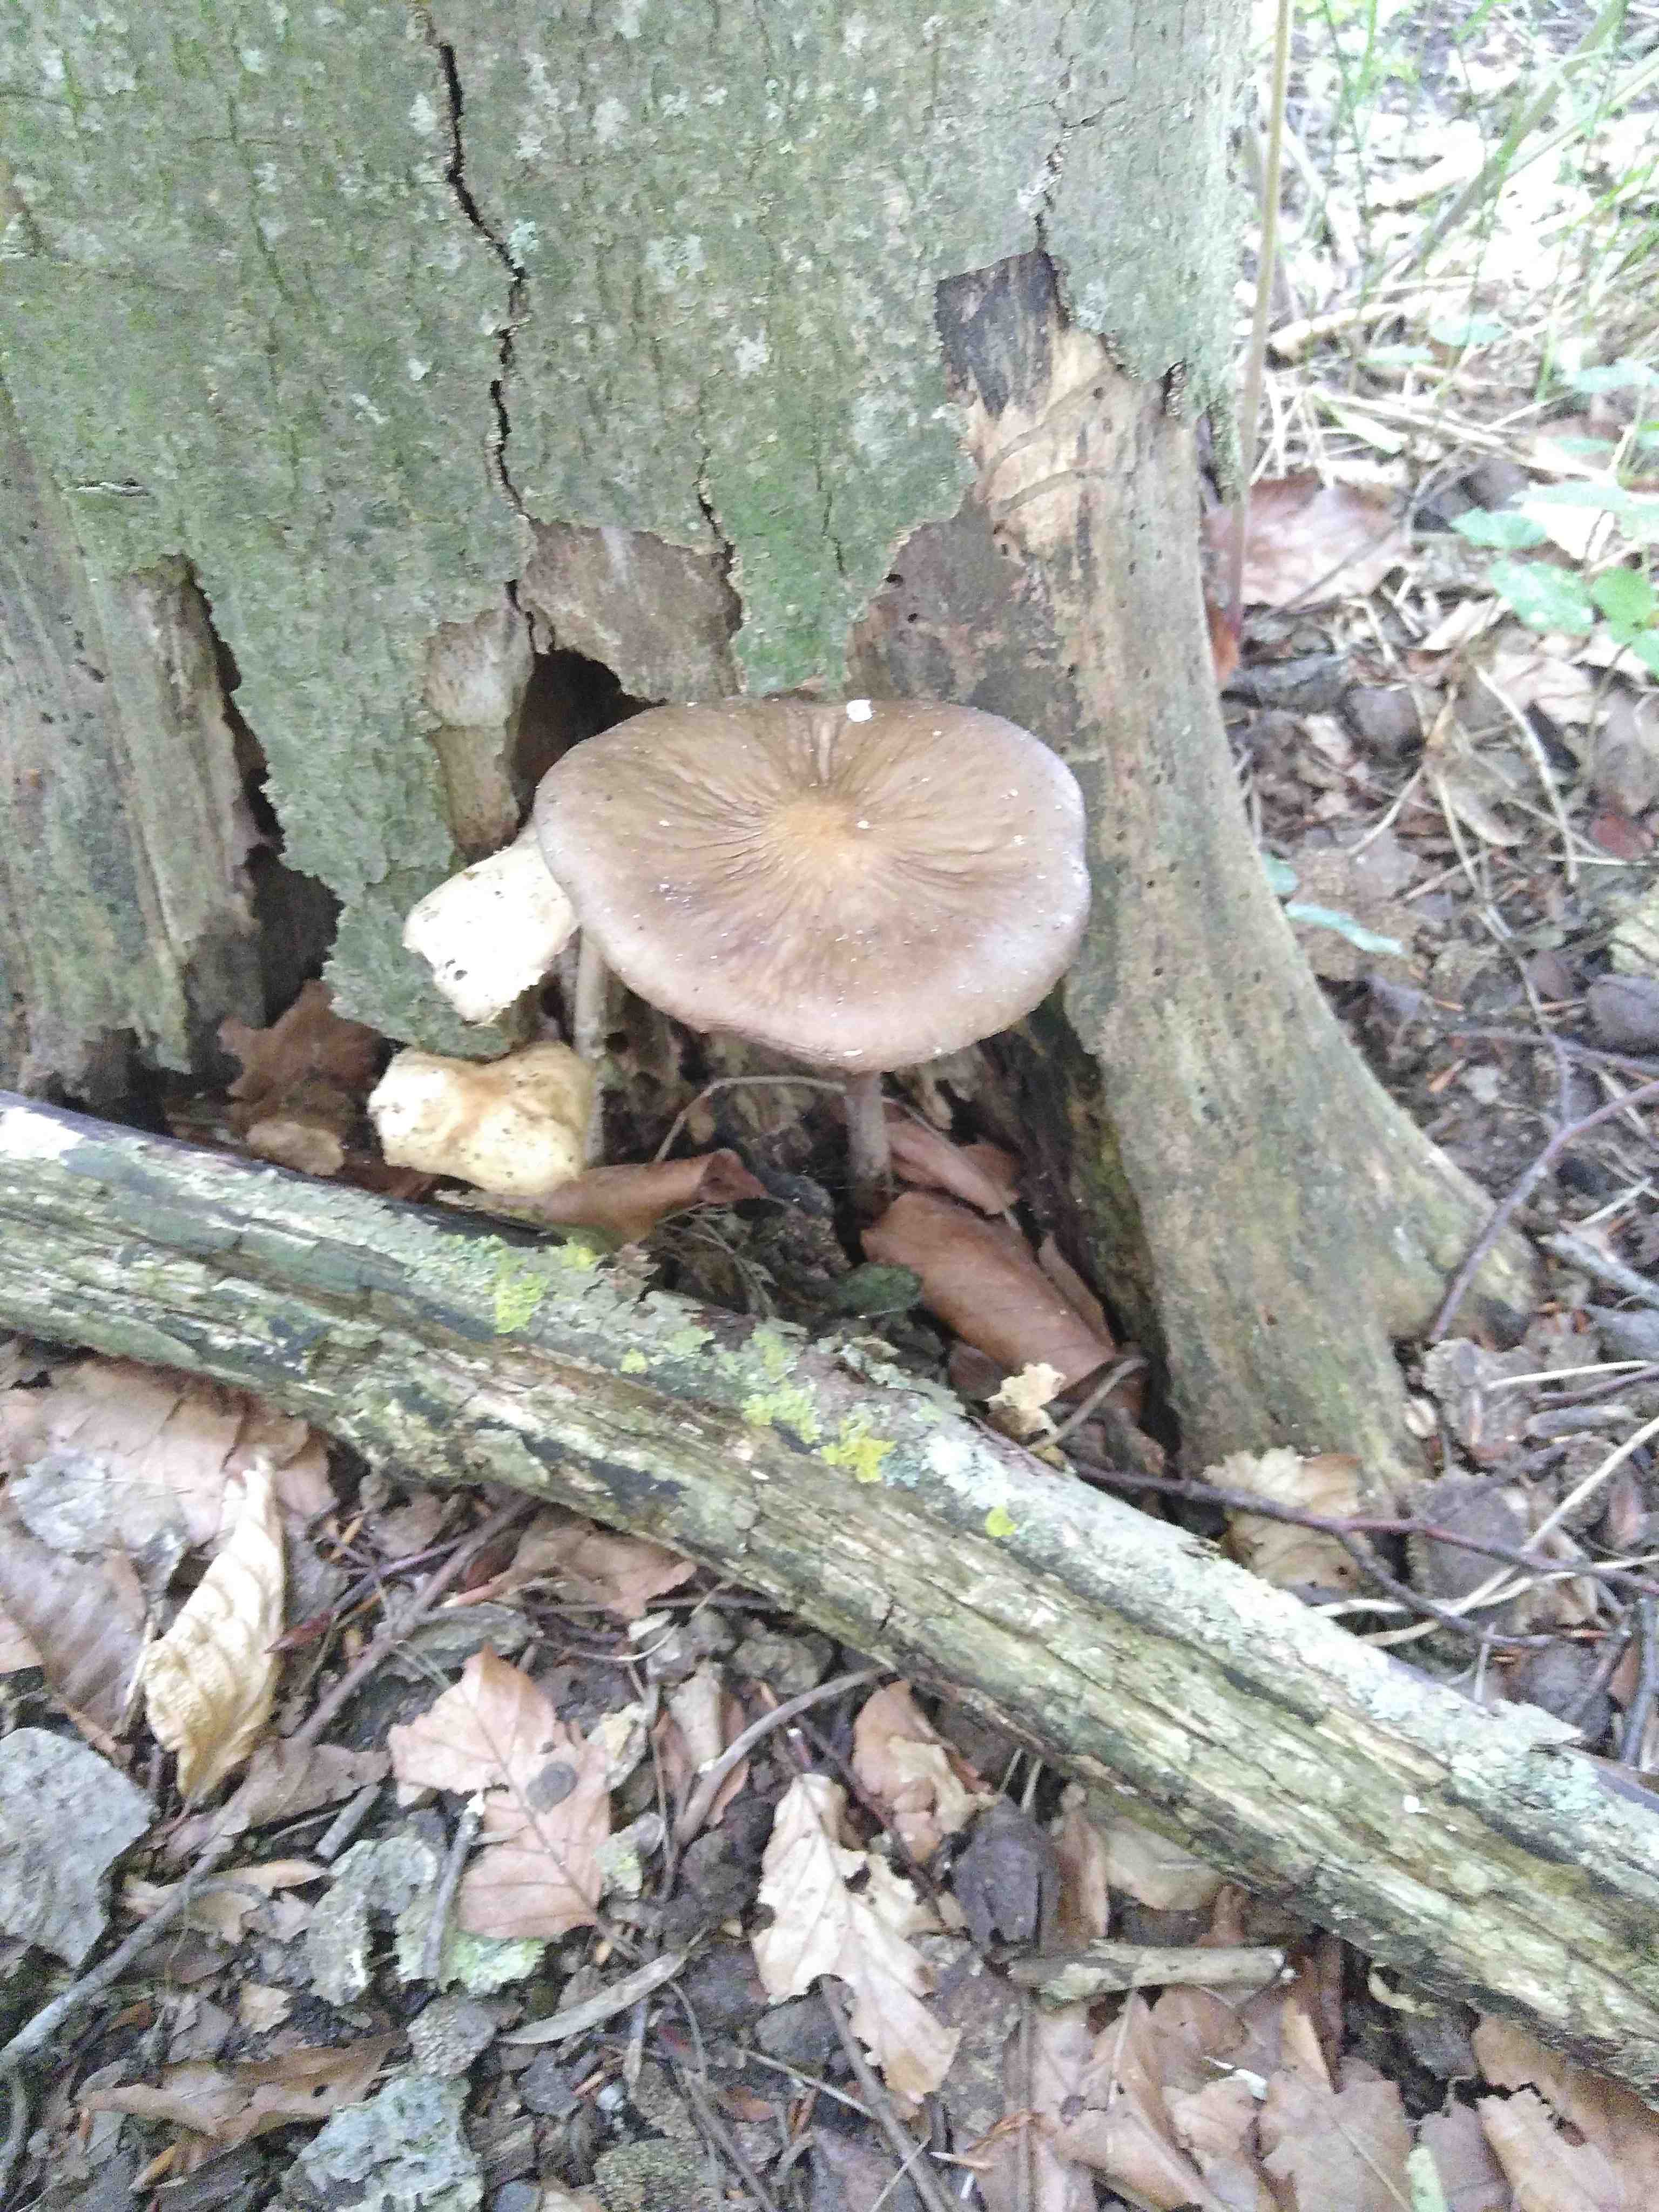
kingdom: Fungi
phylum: Basidiomycota
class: Agaricomycetes
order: Agaricales
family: Physalacriaceae
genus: Hymenopellis
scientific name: Hymenopellis radicata
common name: almindelig pælerodshat
